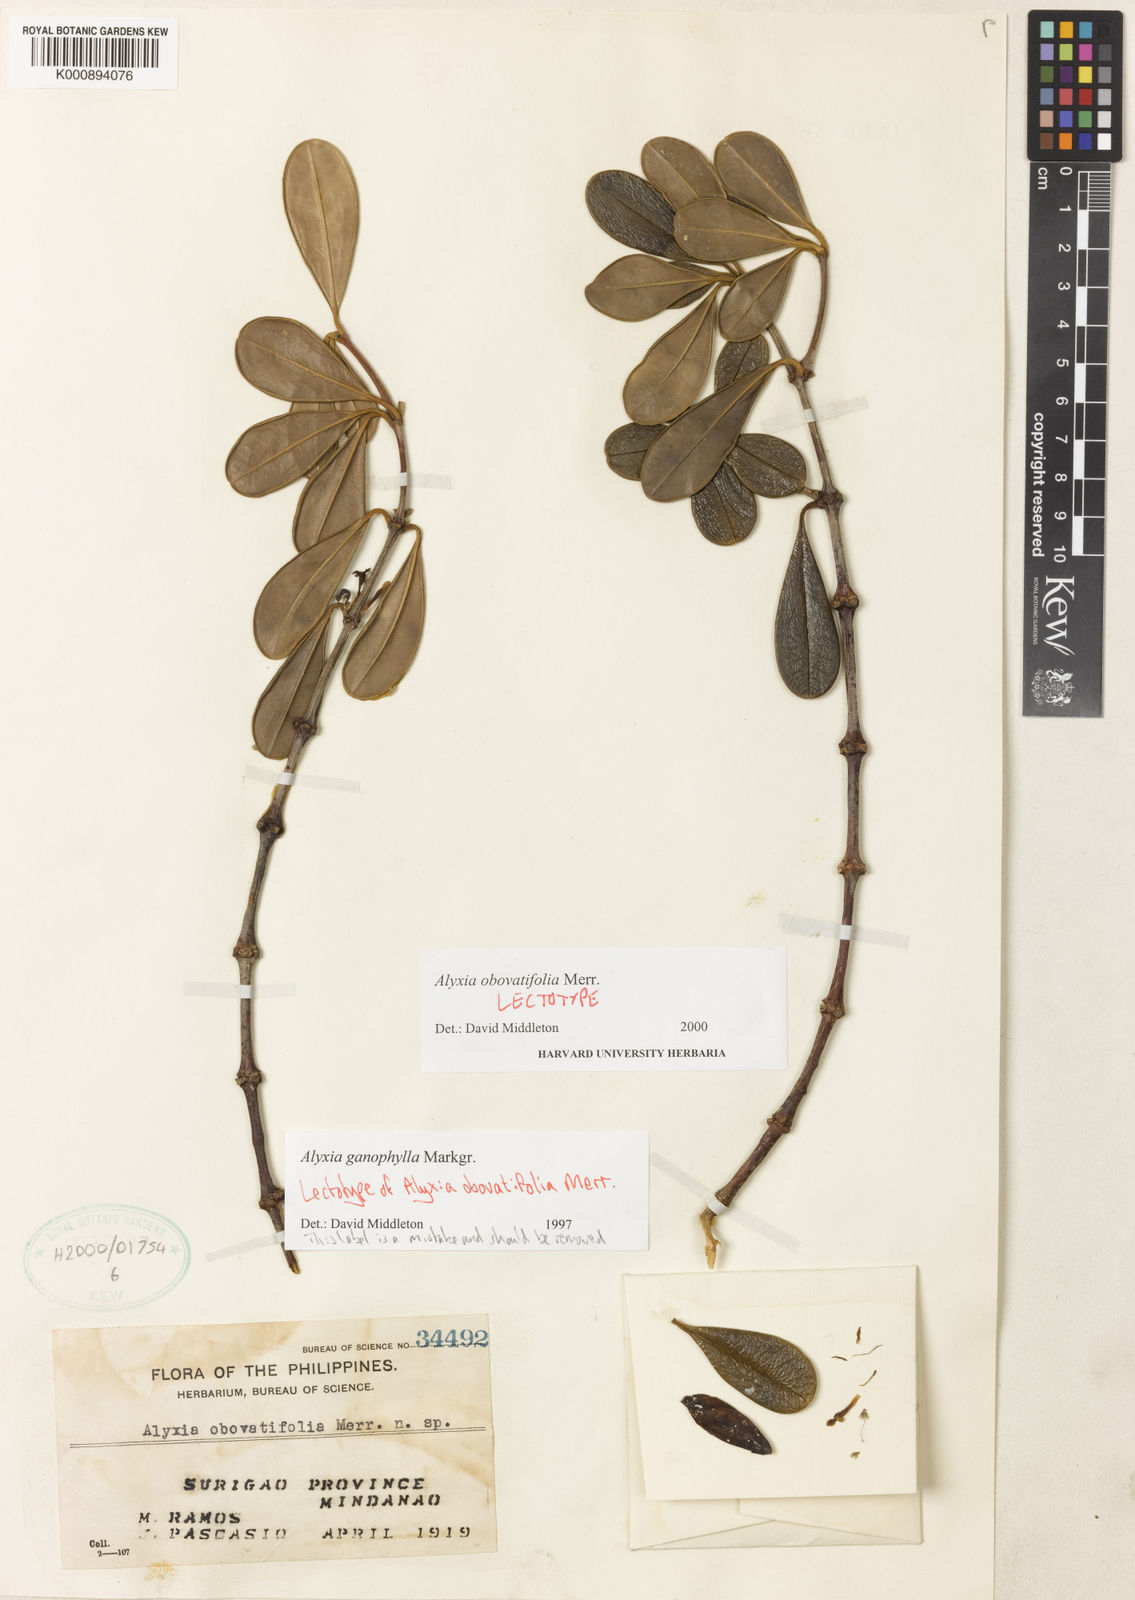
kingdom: Plantae
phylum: Tracheophyta
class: Magnoliopsida
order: Gentianales
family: Apocynaceae
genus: Alyxia
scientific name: Alyxia obovatifolia
